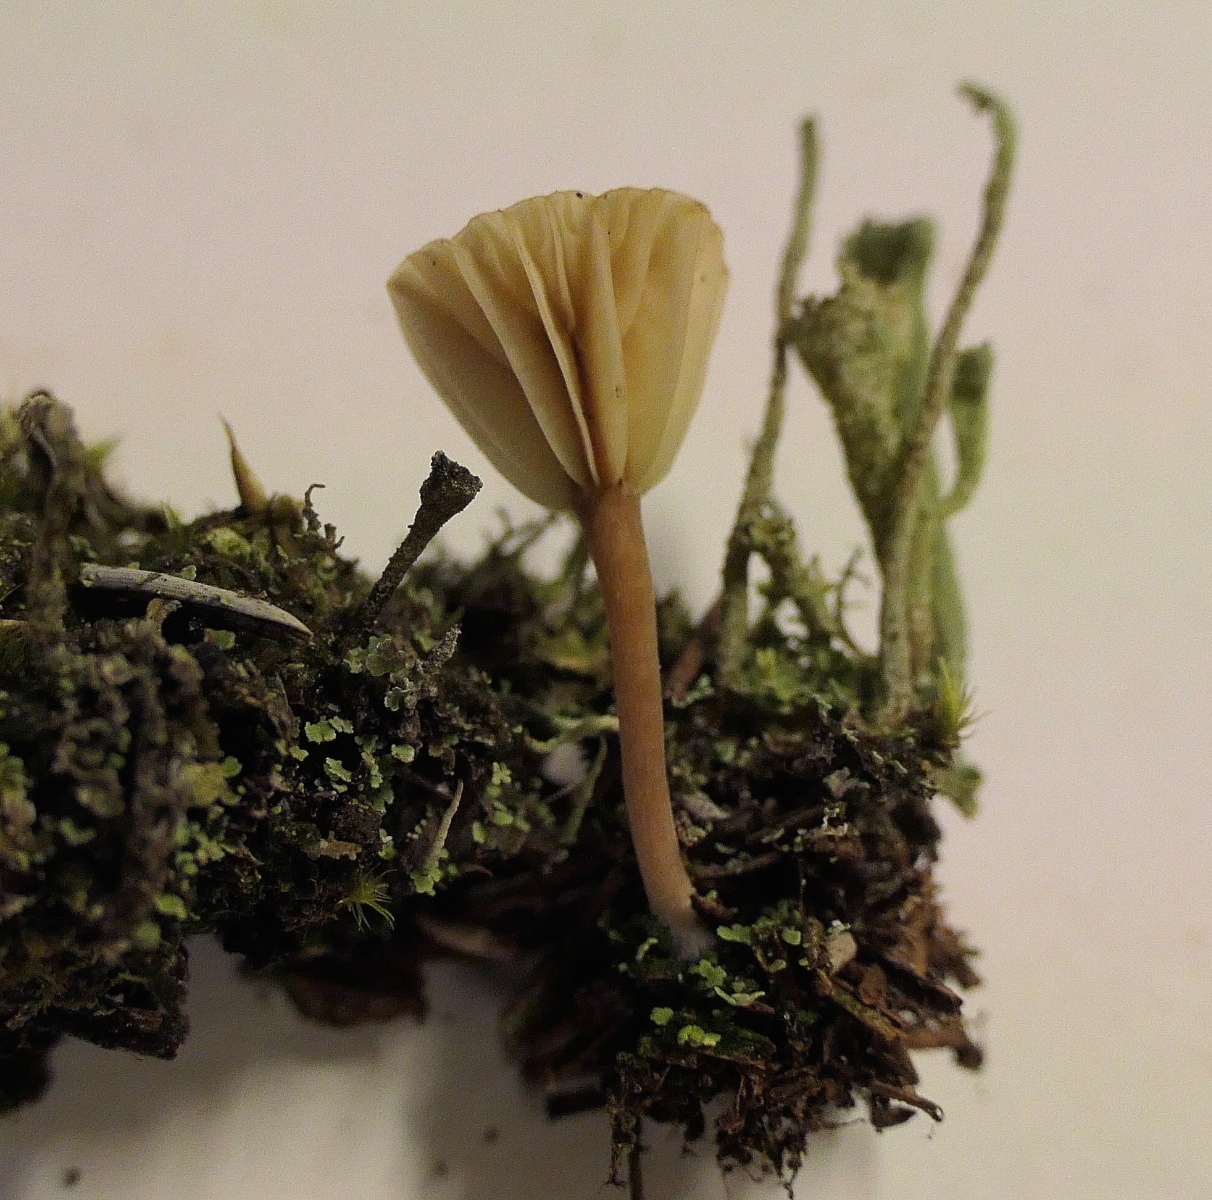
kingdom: Fungi
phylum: Basidiomycota
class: Agaricomycetes
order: Agaricales
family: Hygrophoraceae
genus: Lichenomphalia
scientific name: Lichenomphalia umbellifera
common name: tørve-lavhat
